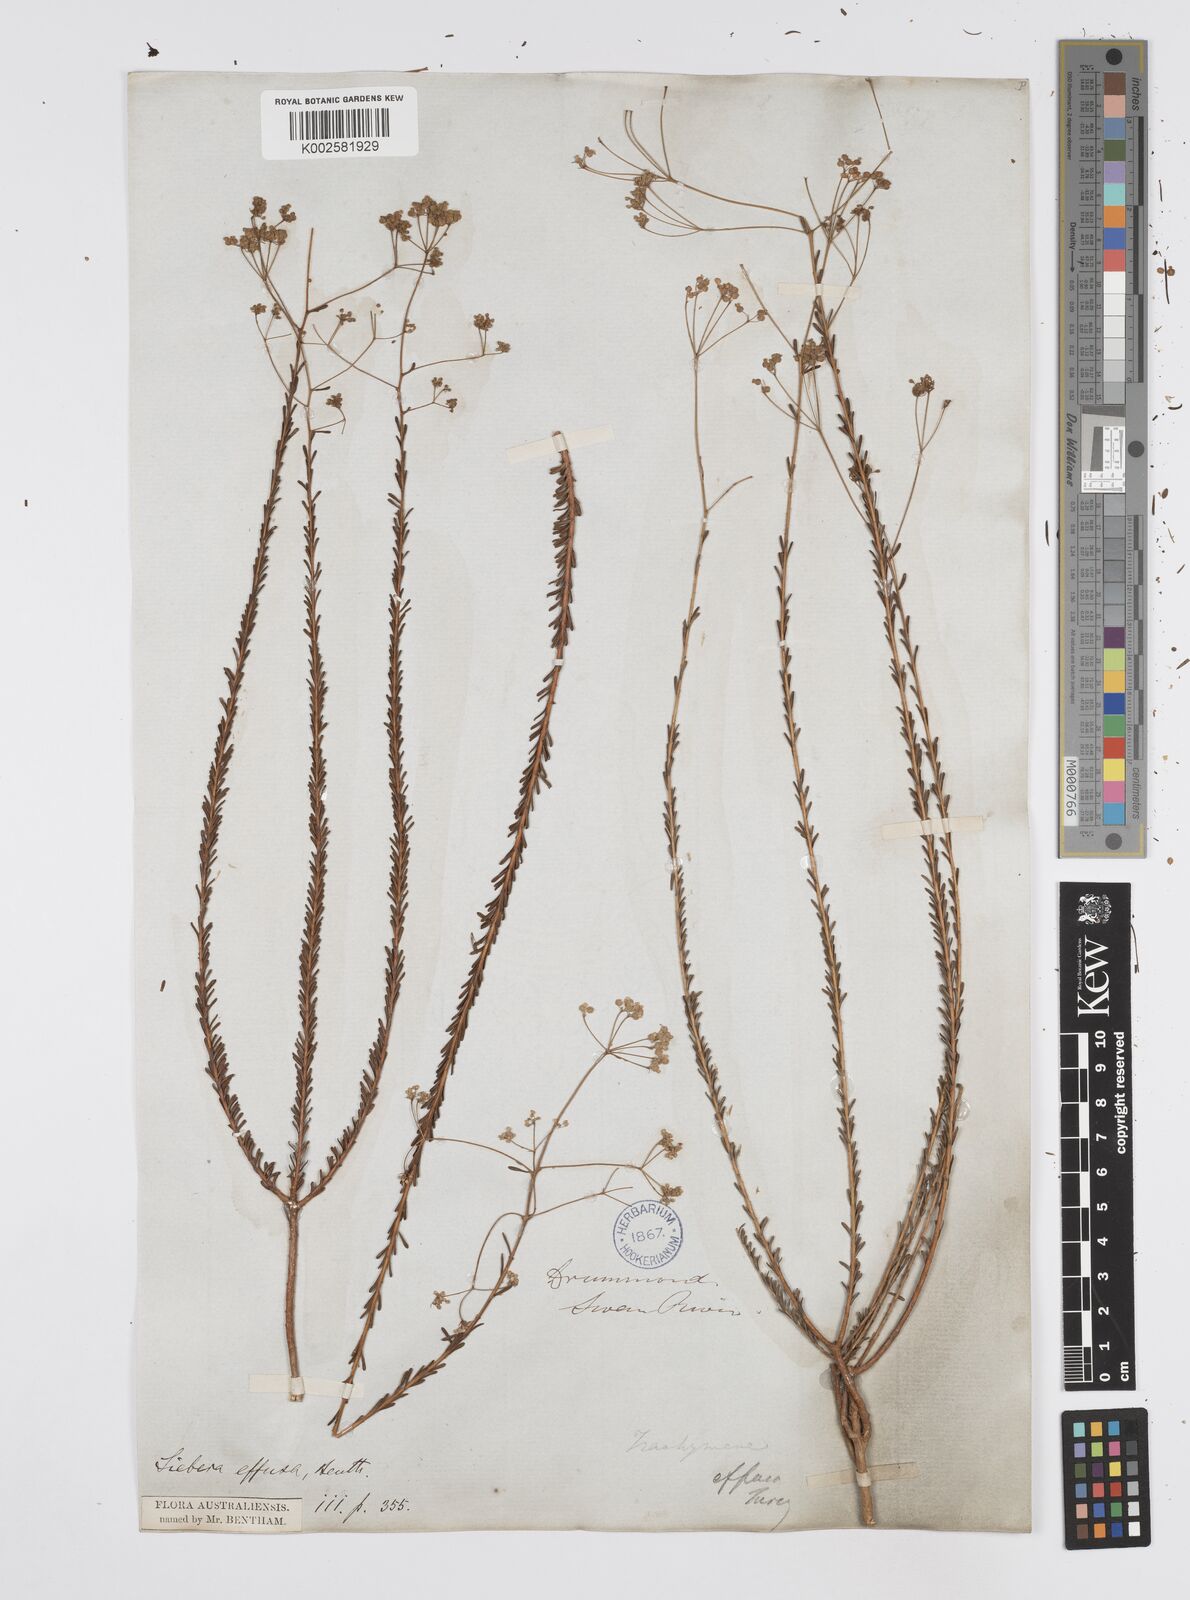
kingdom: Plantae
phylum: Tracheophyta
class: Magnoliopsida
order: Apiales
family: Apiaceae
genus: Platysace
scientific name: Platysace effusa
